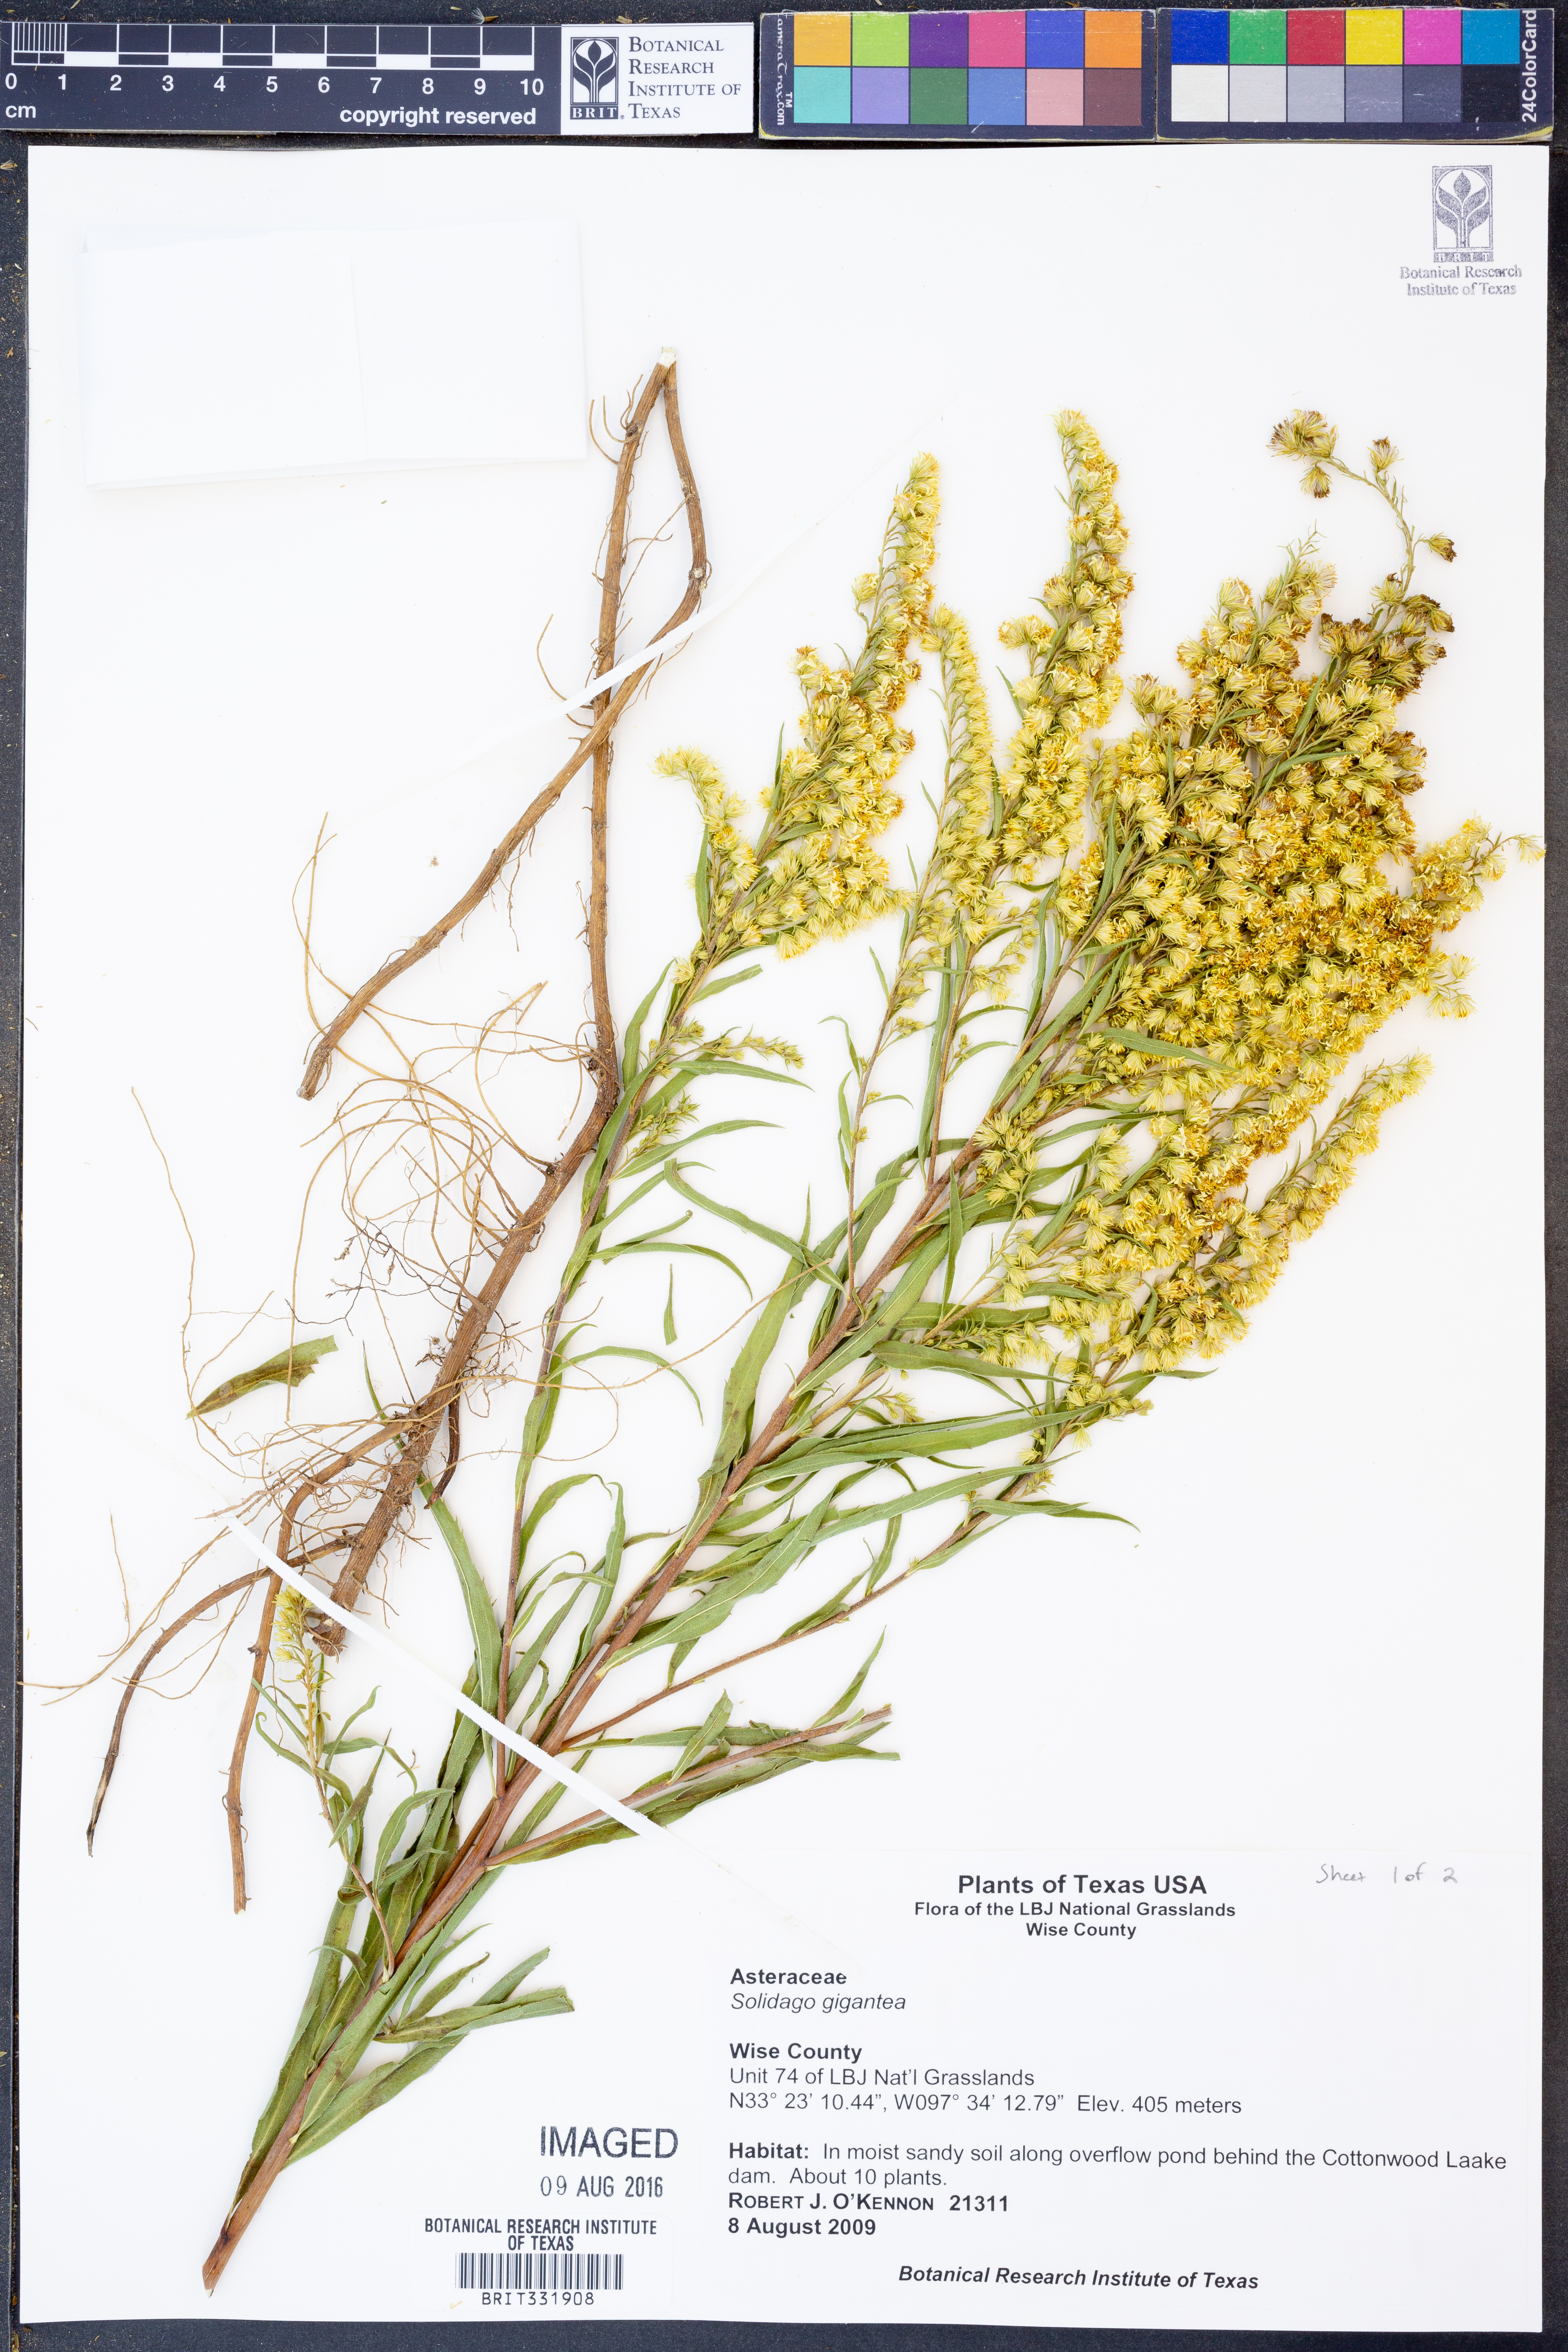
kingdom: Plantae
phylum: Tracheophyta
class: Magnoliopsida
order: Asterales
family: Asteraceae
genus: Solidago
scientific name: Solidago gigantea
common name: Giant goldenrod
